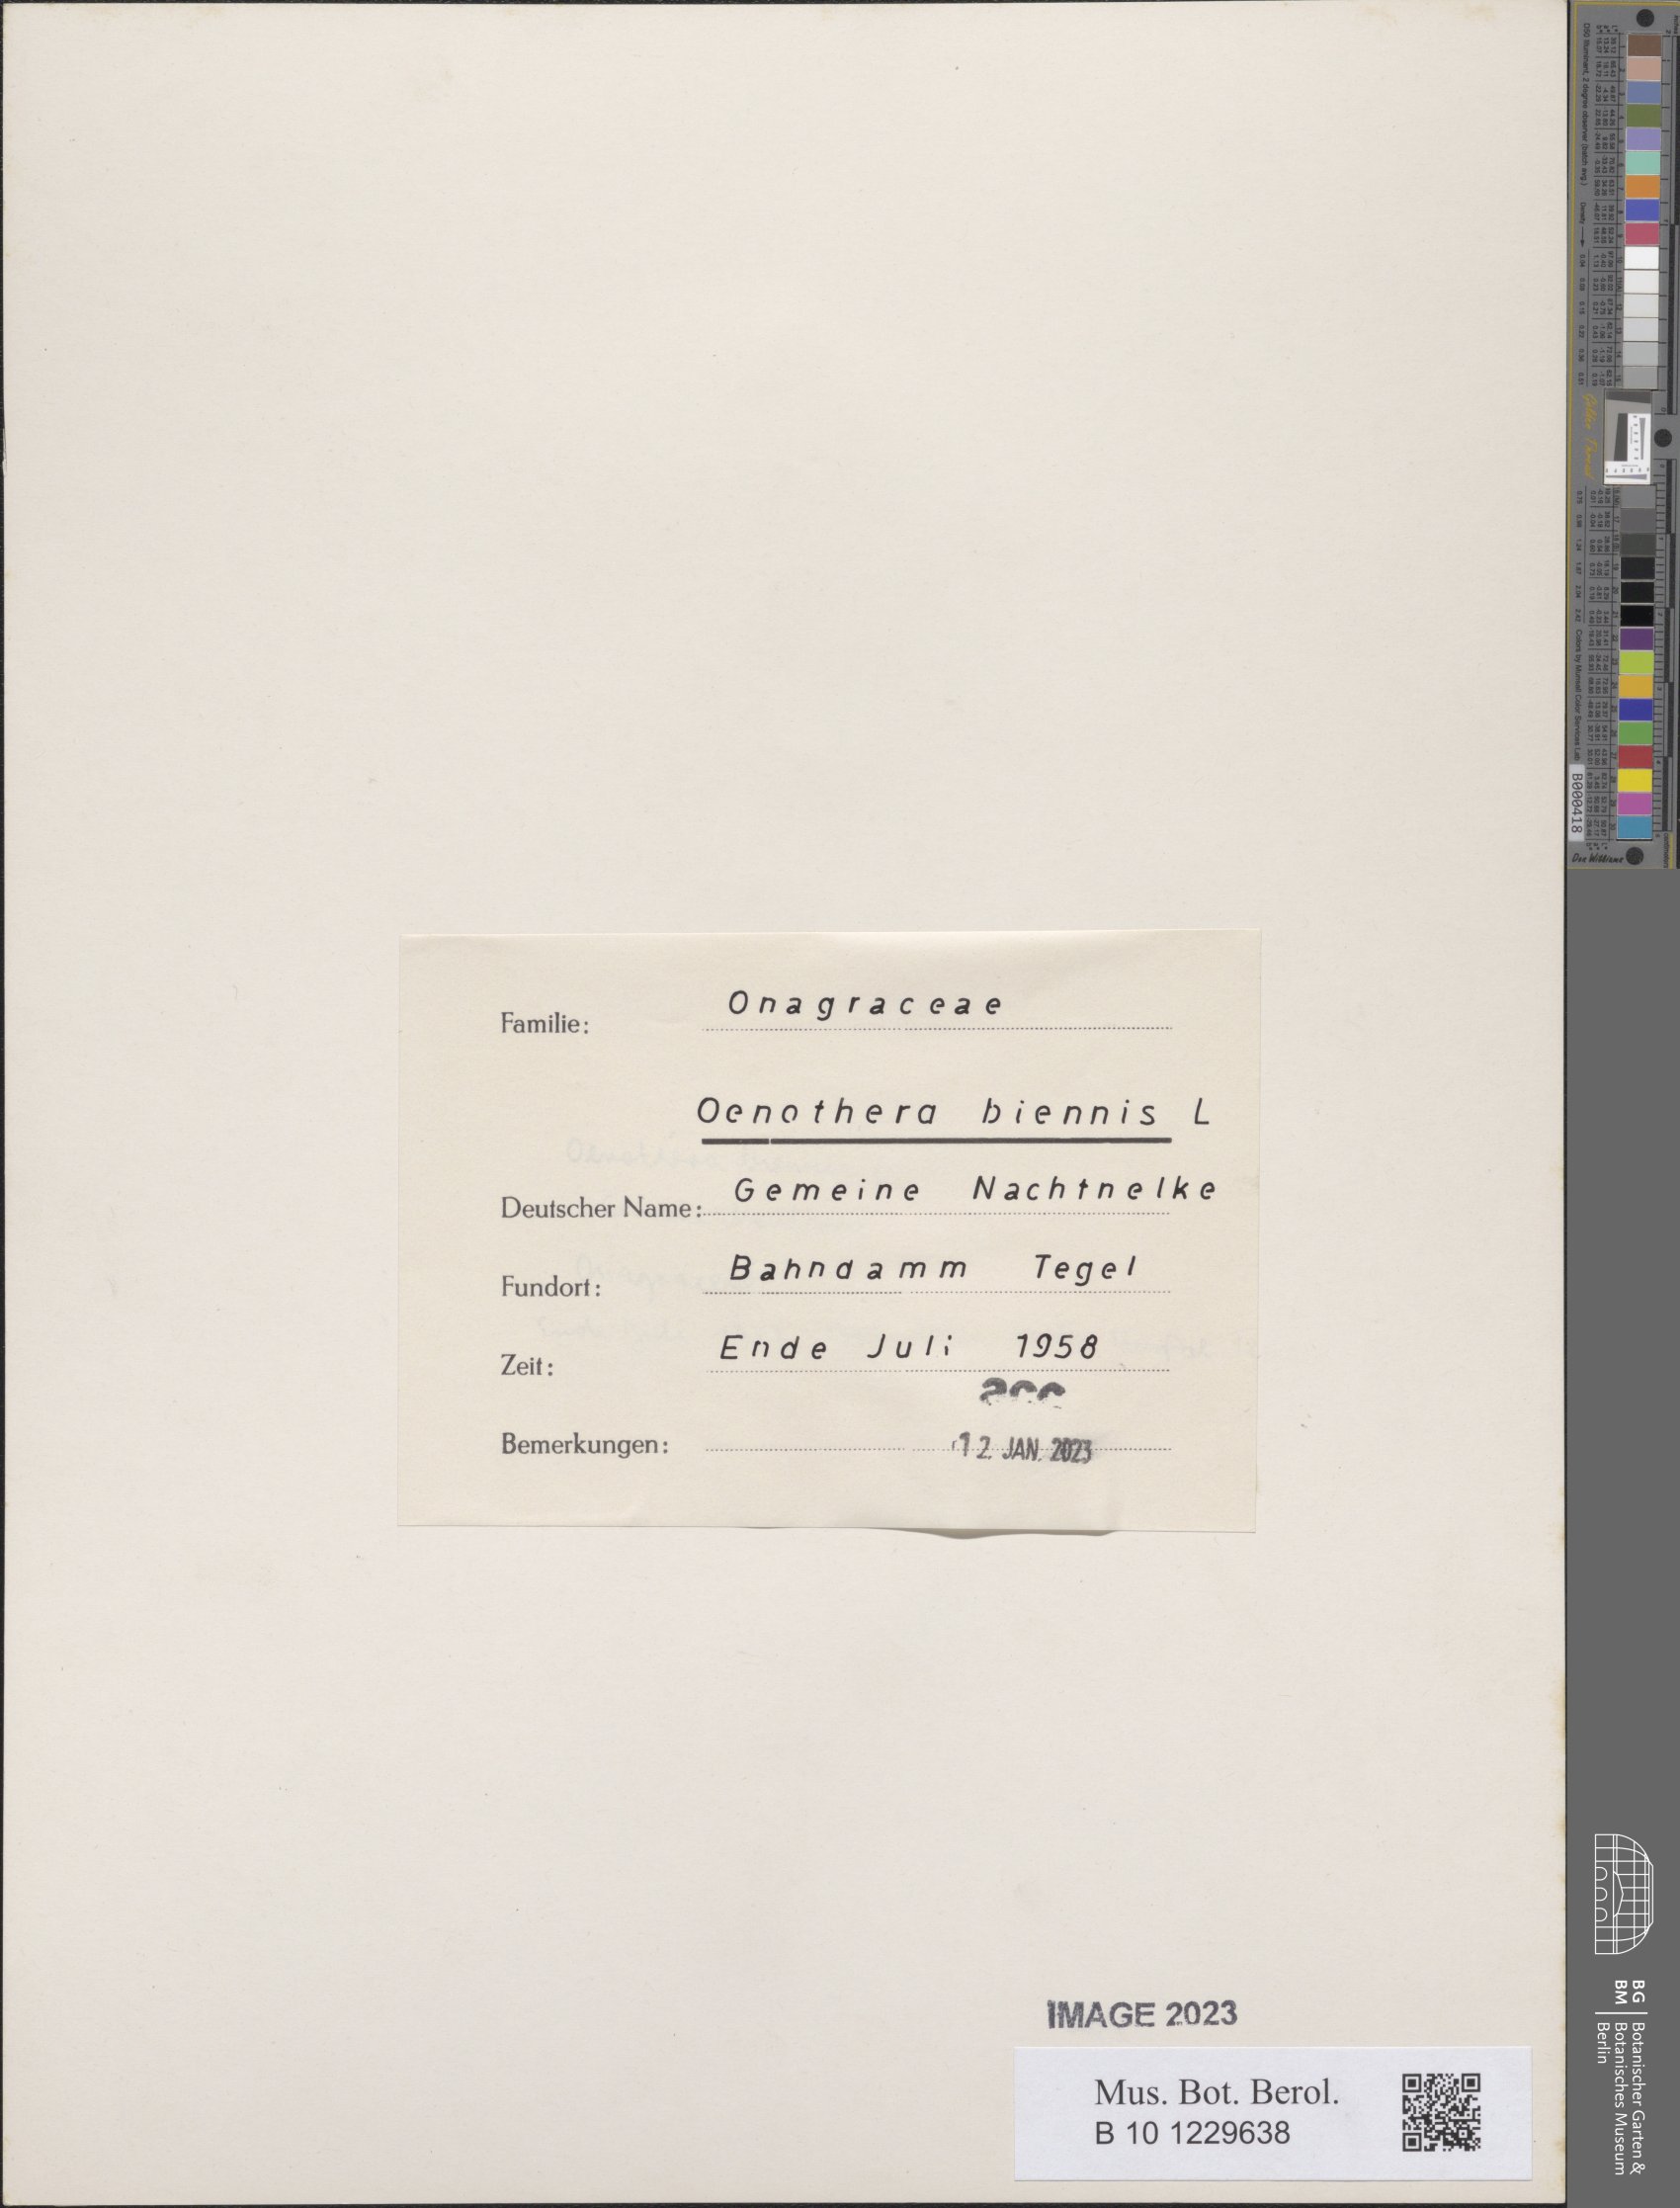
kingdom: Plantae
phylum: Tracheophyta
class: Magnoliopsida
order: Myrtales
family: Onagraceae
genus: Oenothera
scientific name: Oenothera biennis
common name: Common evening-primrose
